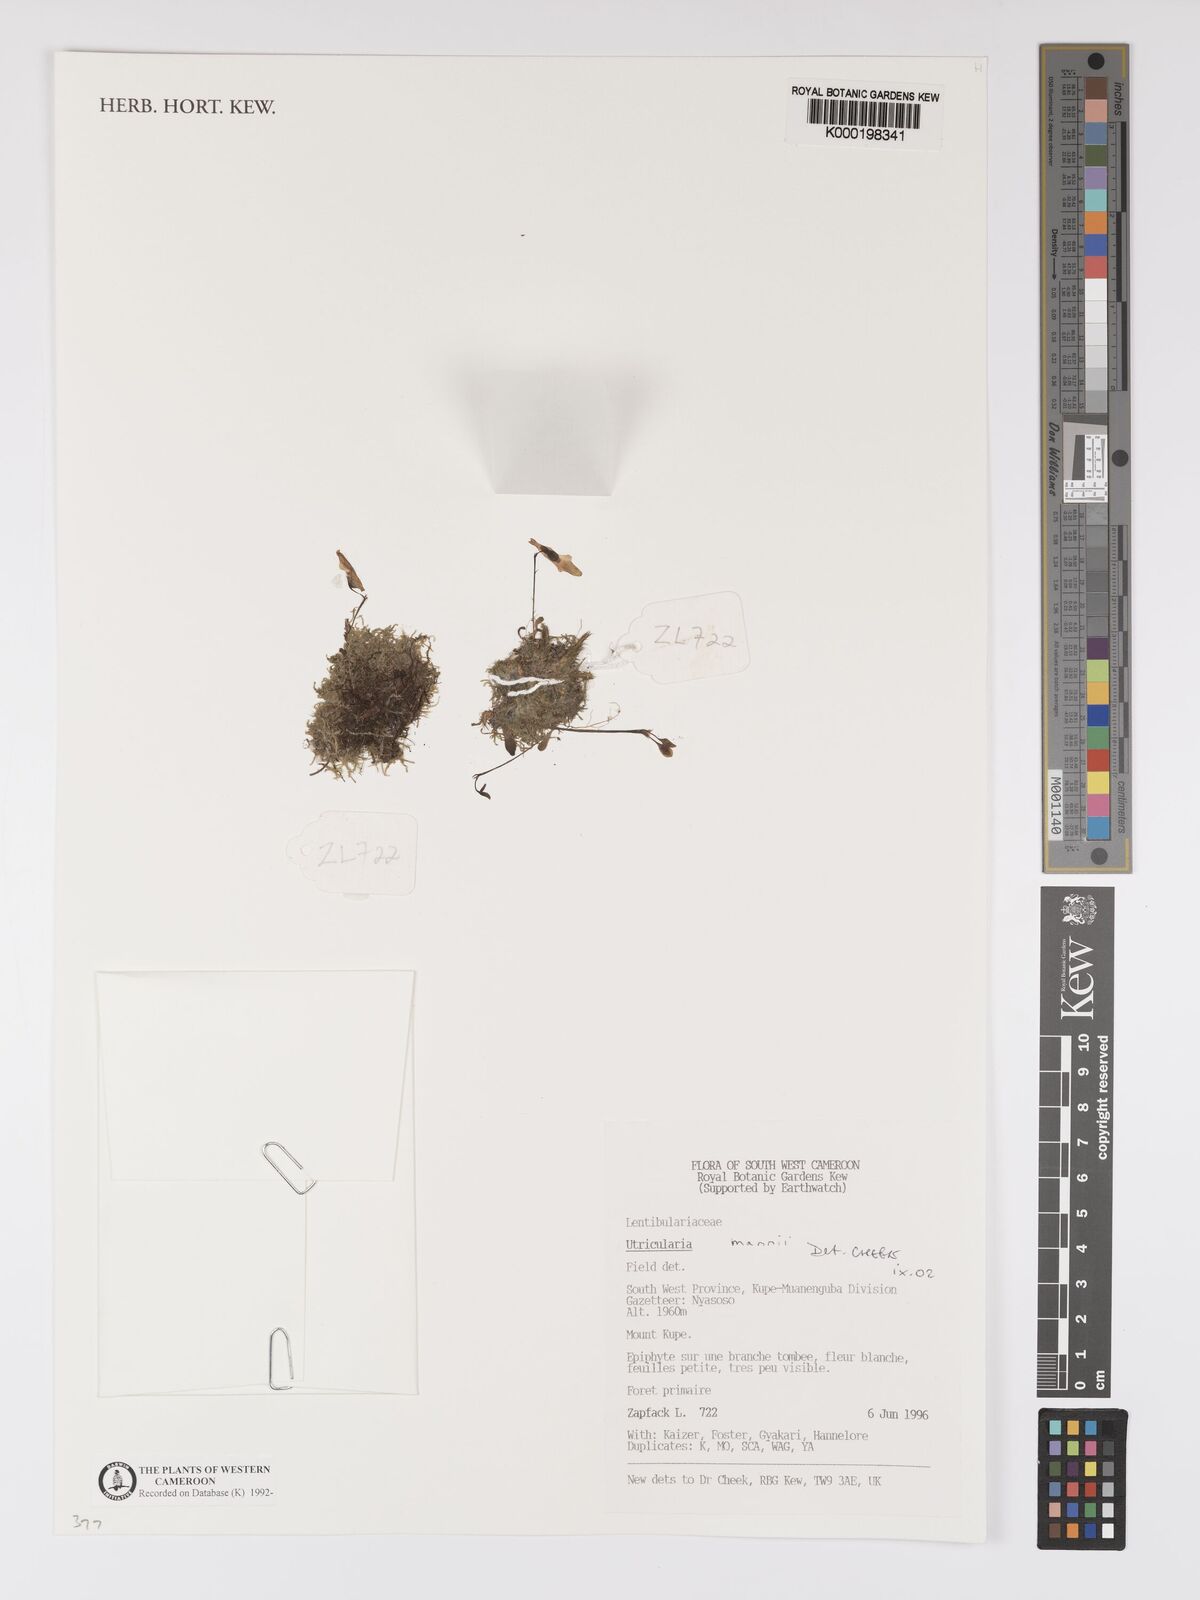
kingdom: Plantae
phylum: Tracheophyta
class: Magnoliopsida
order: Lamiales
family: Lentibulariaceae
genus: Utricularia
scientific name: Utricularia mannii
